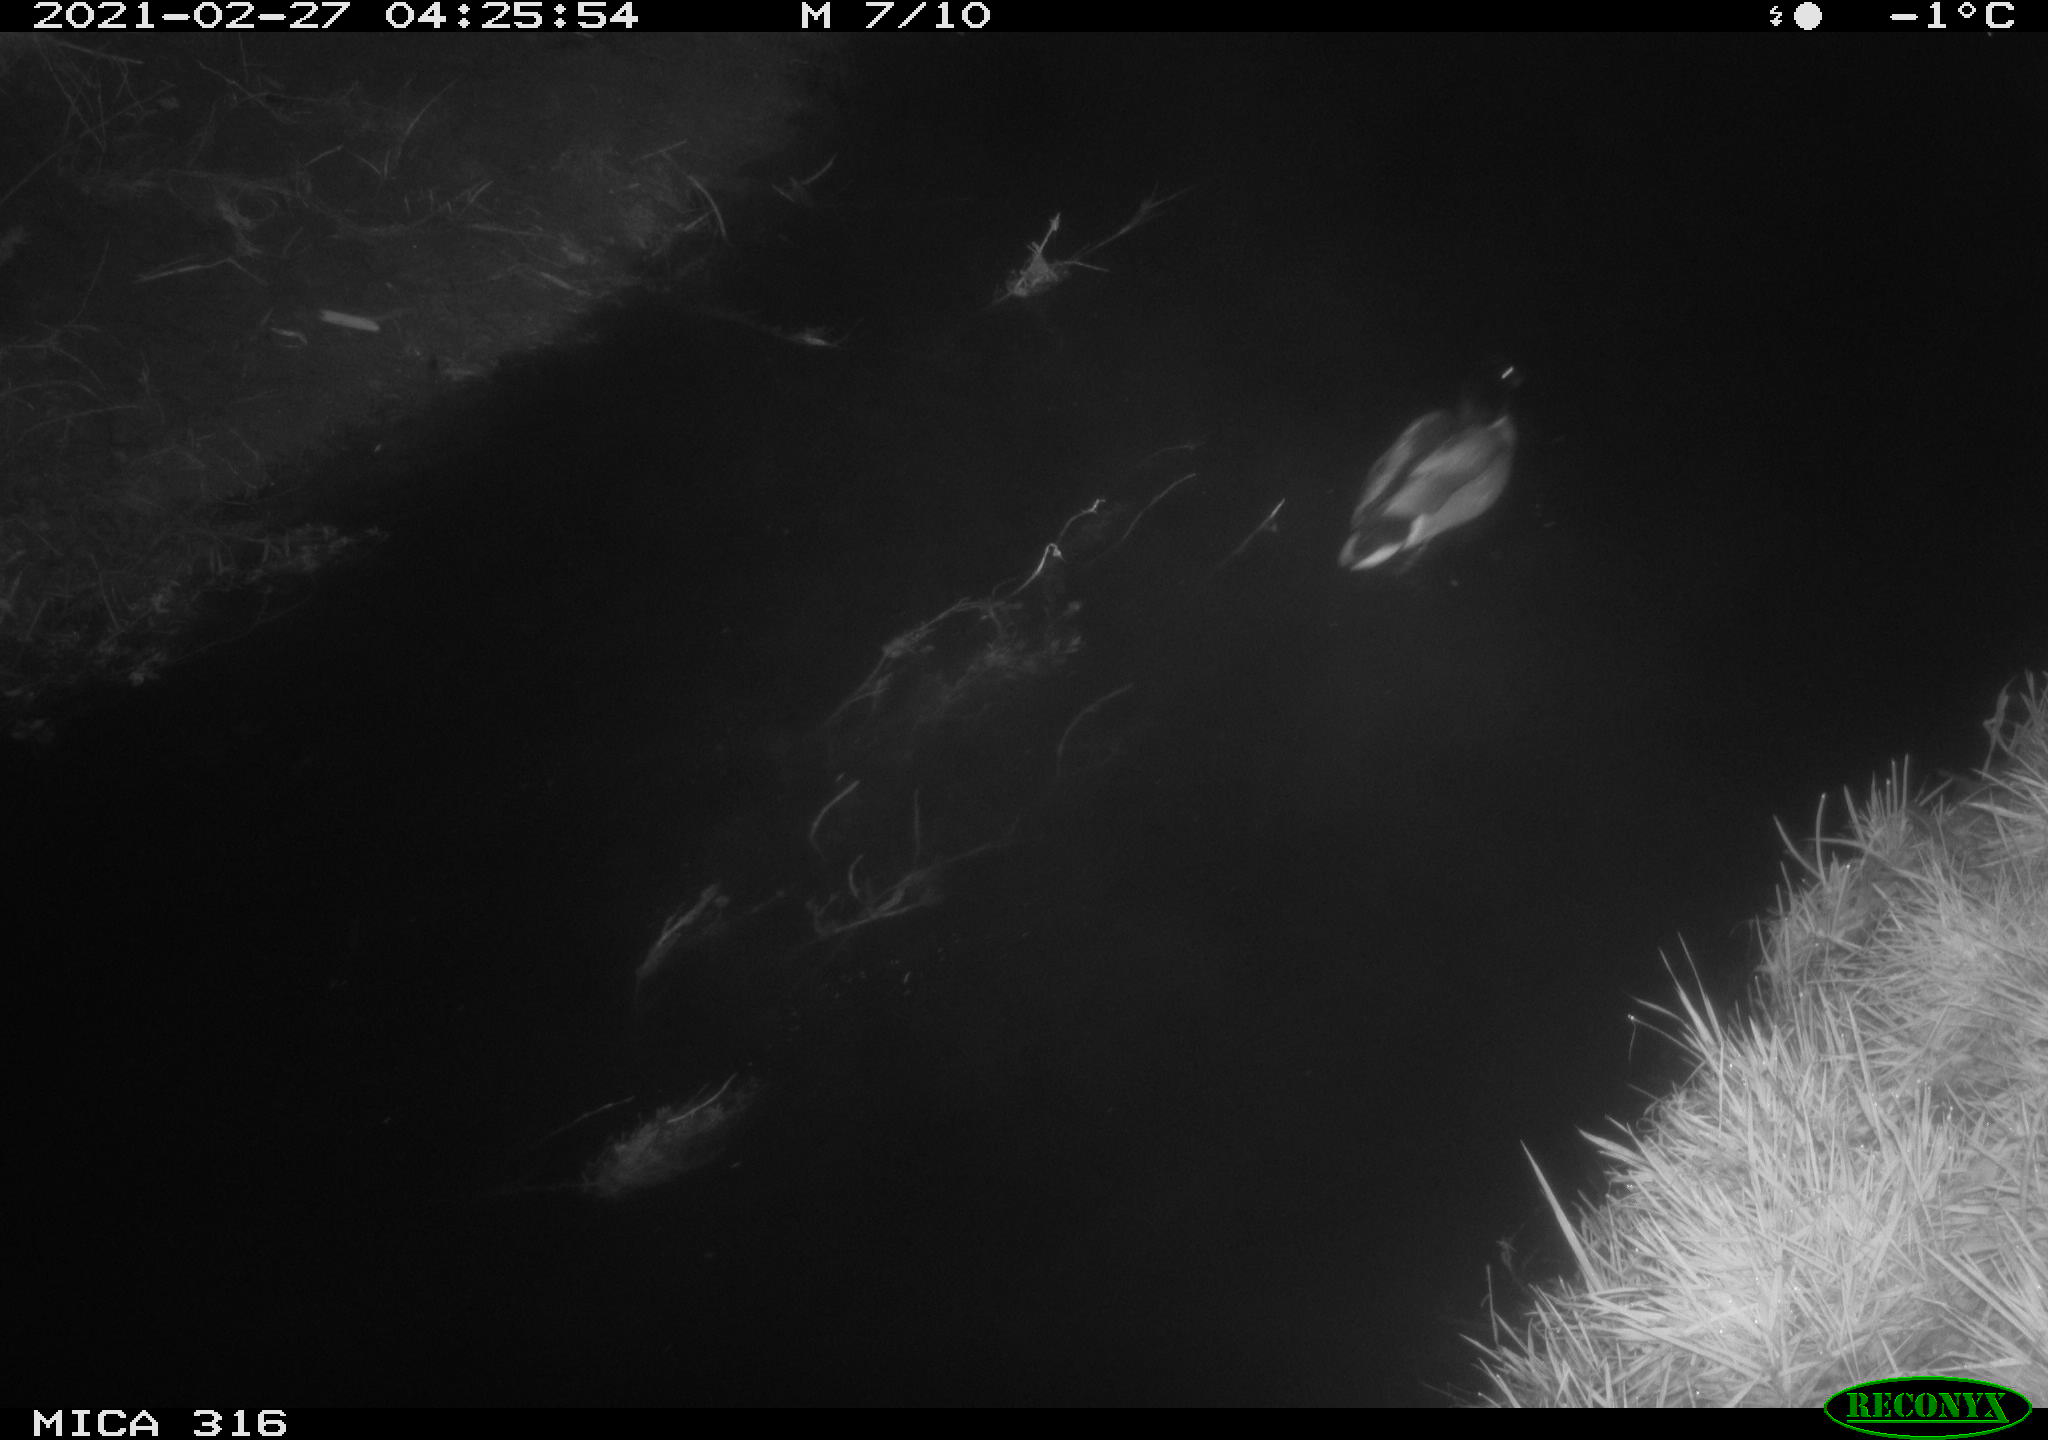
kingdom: Animalia
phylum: Chordata
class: Aves
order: Anseriformes
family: Anatidae
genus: Anas
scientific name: Anas platyrhynchos
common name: Mallard
